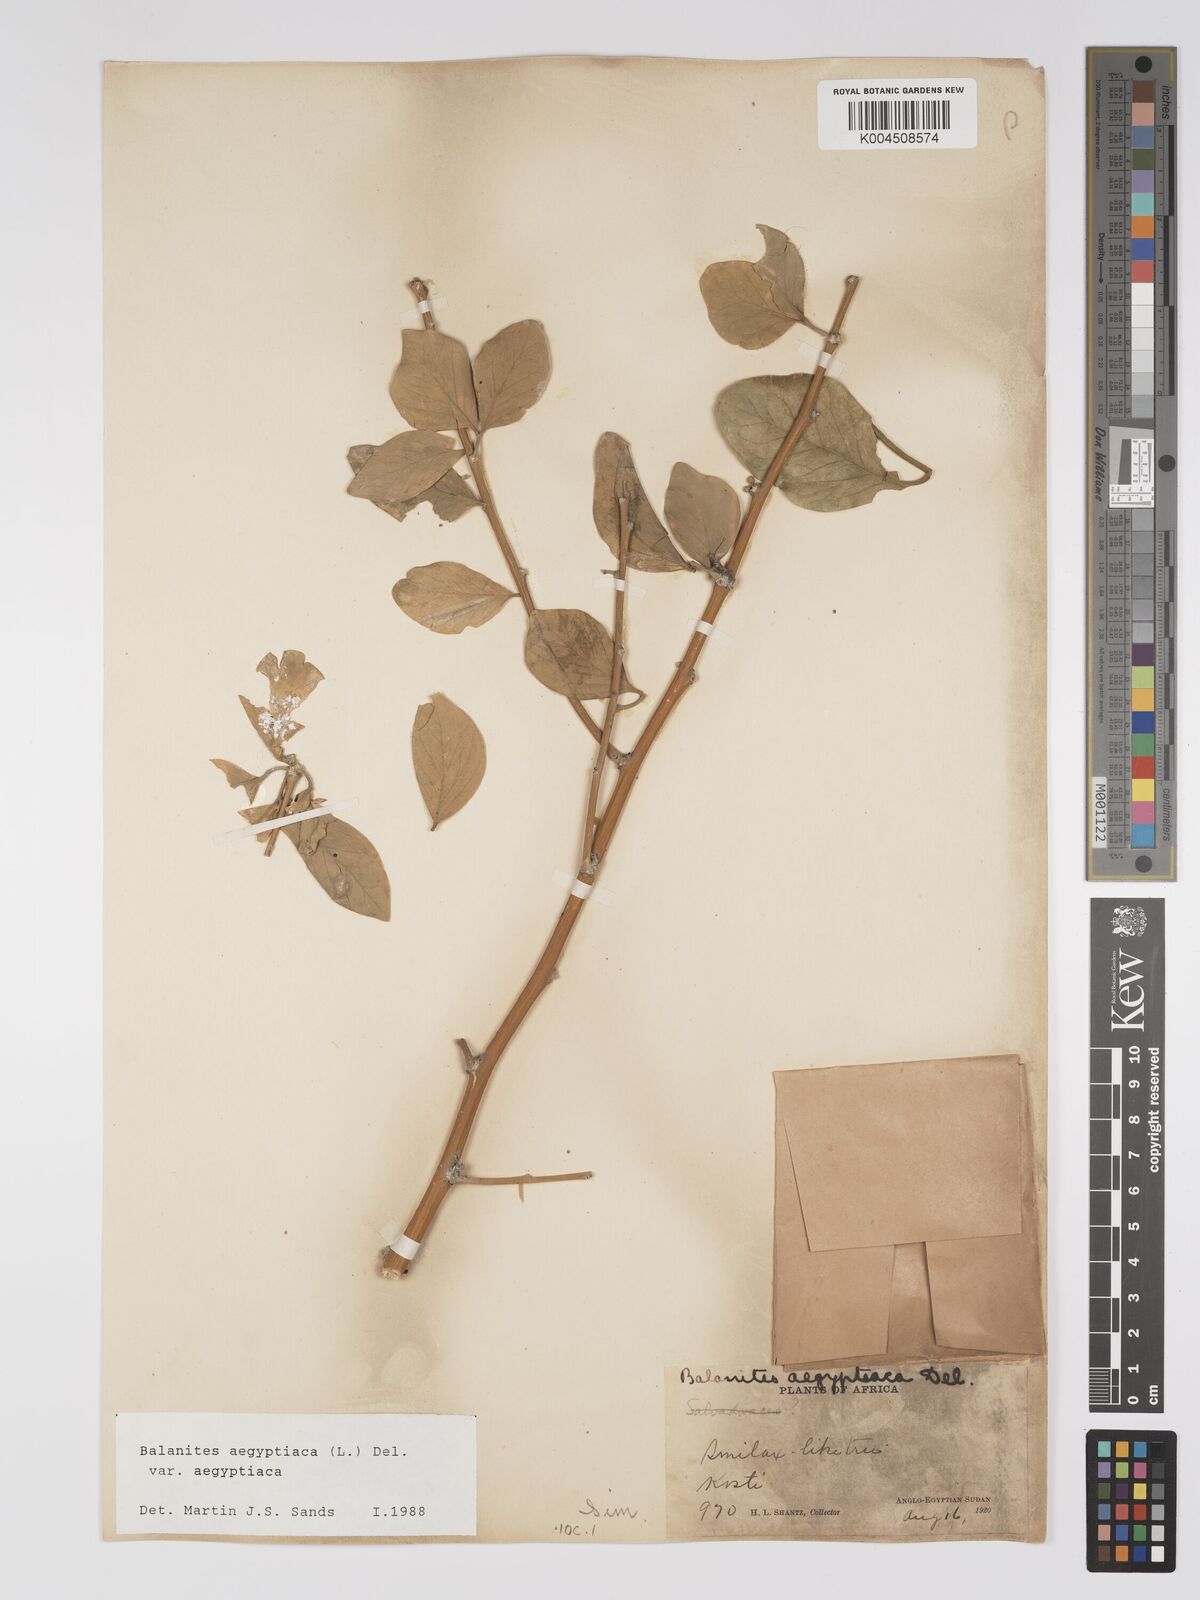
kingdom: Plantae
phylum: Tracheophyta
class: Magnoliopsida
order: Zygophyllales
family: Zygophyllaceae
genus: Balanites
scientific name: Balanites aegyptiaca
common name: Balanites
